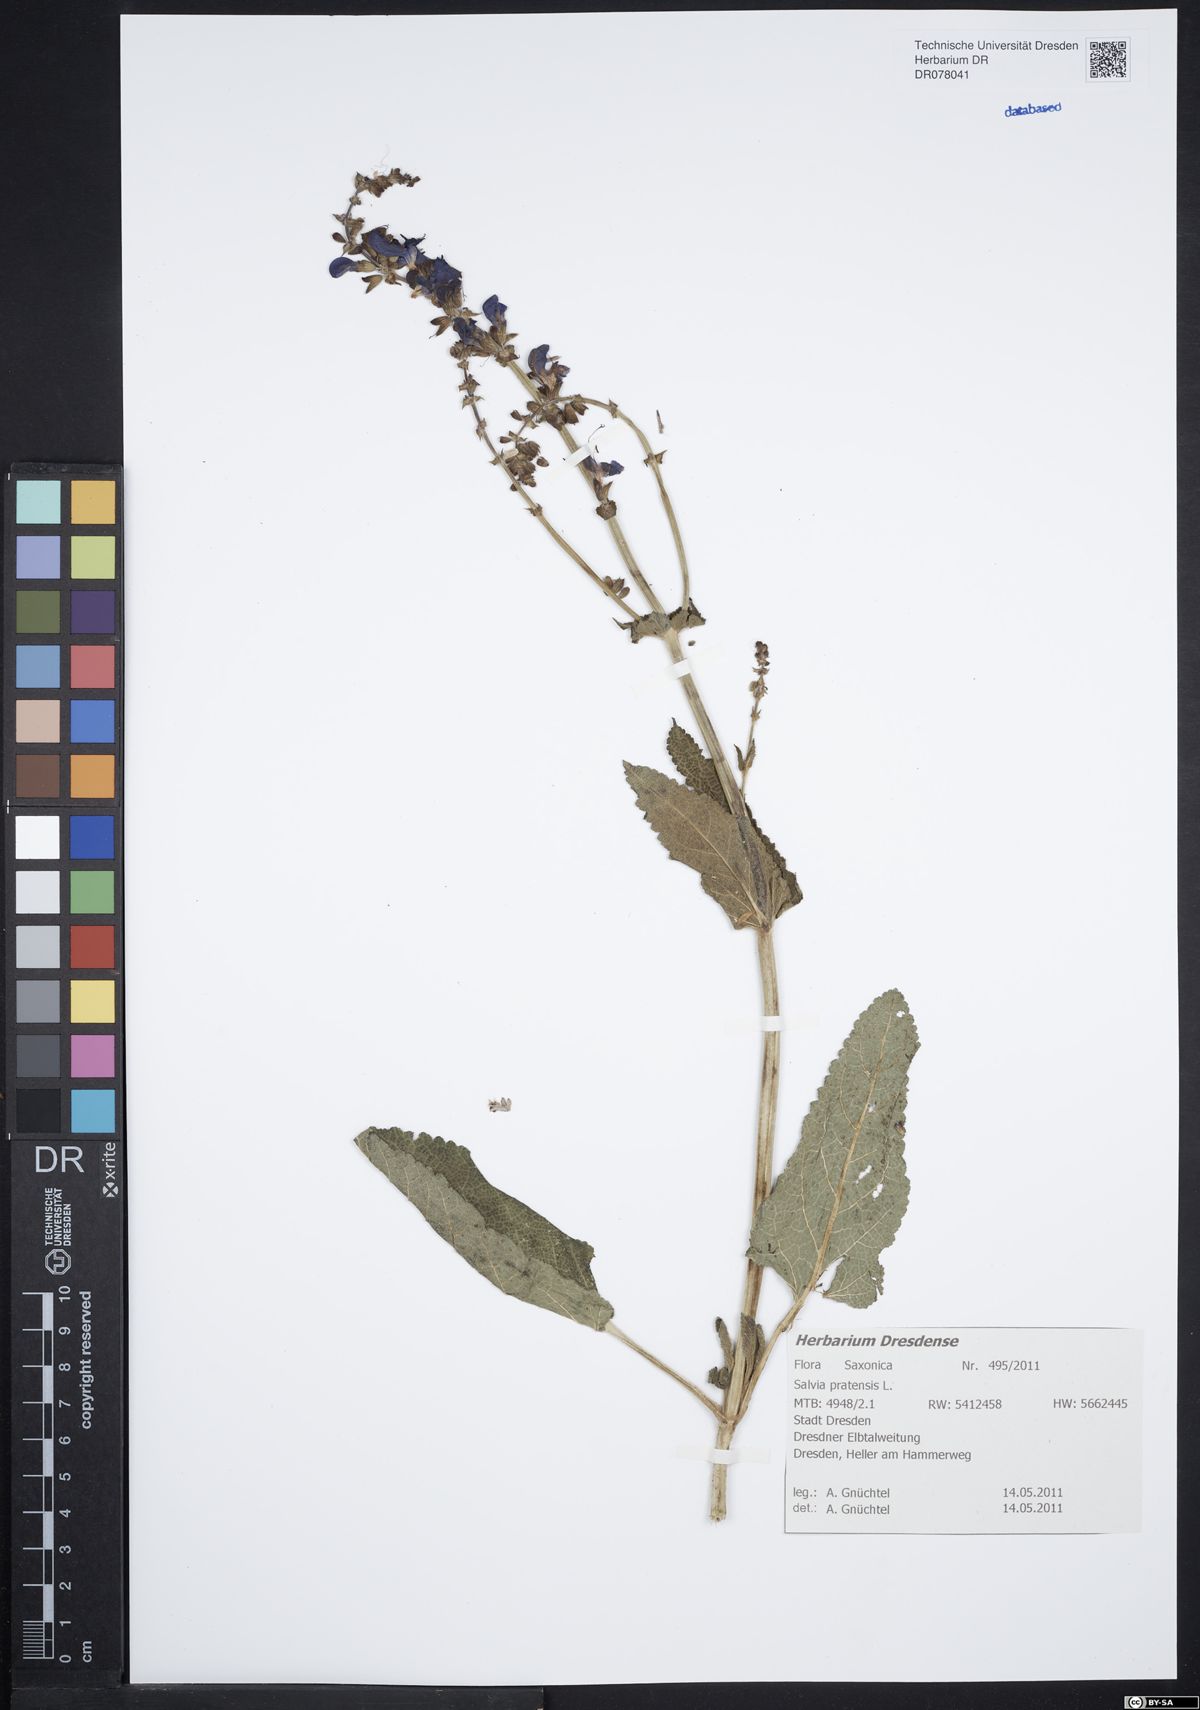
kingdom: Plantae
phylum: Tracheophyta
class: Magnoliopsida
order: Lamiales
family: Lamiaceae
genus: Salvia
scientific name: Salvia pratensis
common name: Meadow sage
